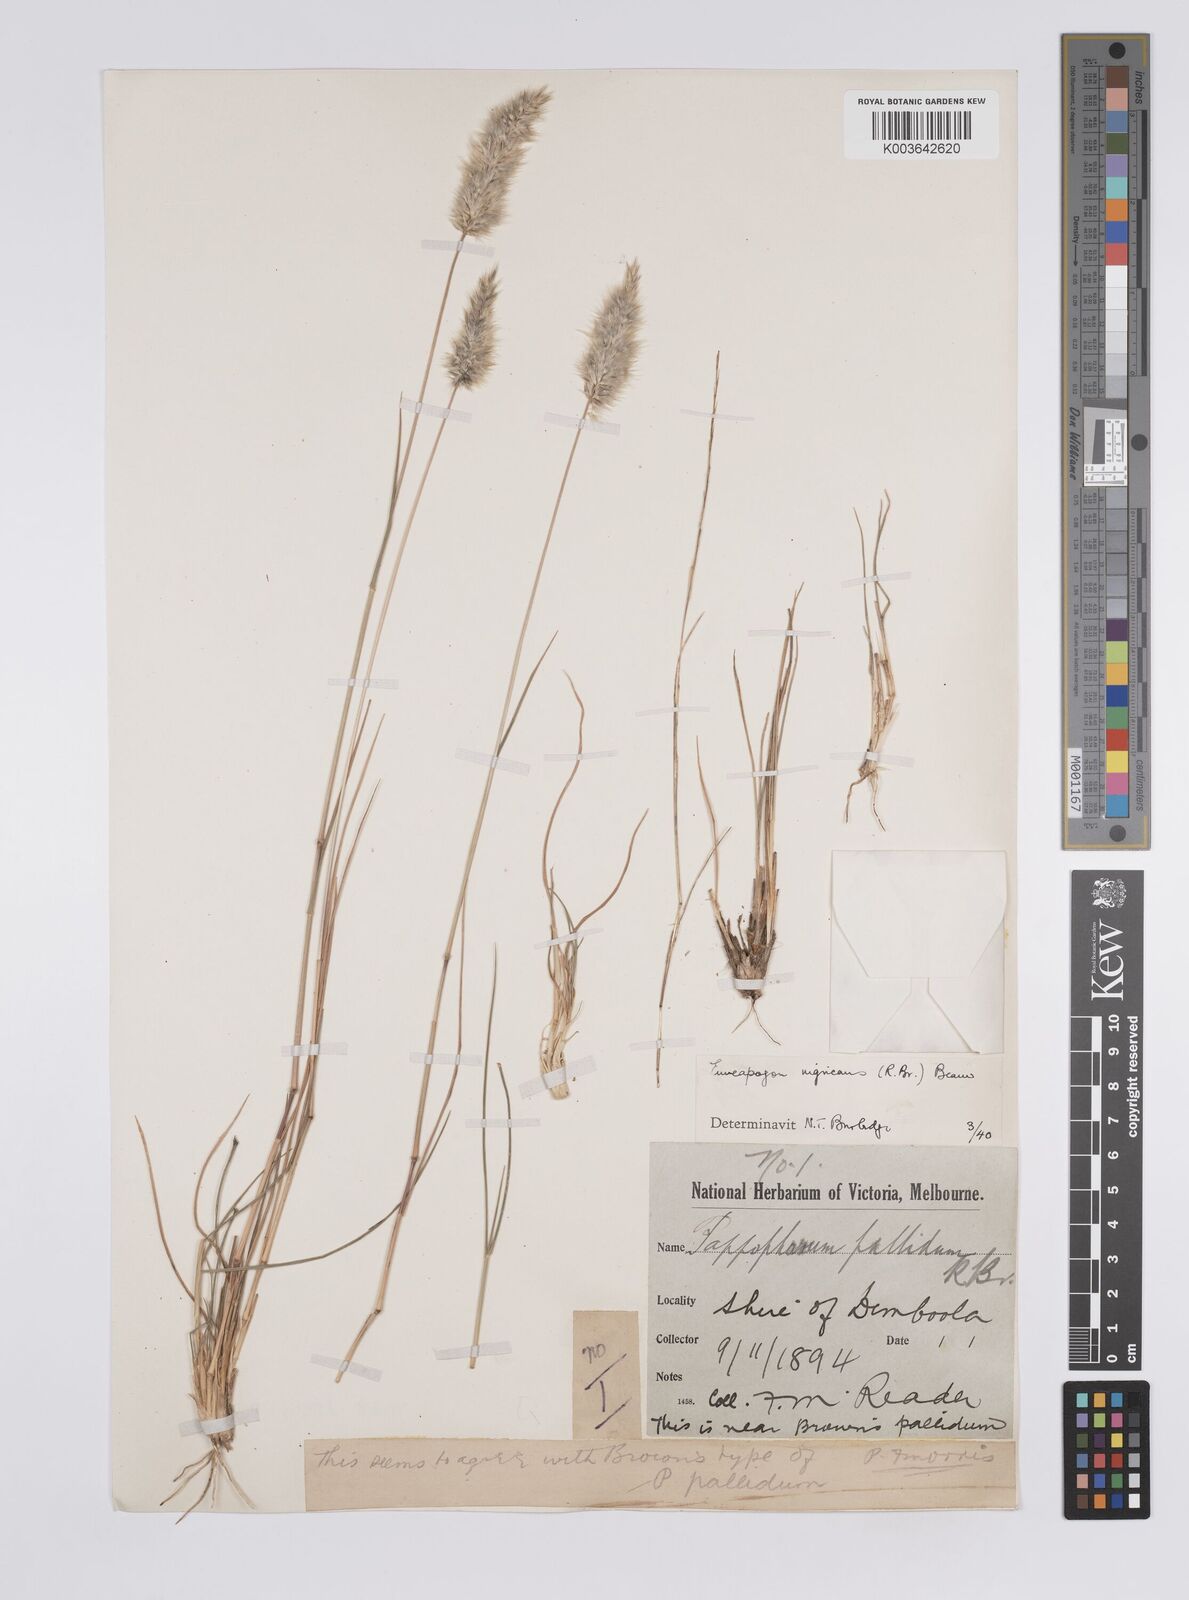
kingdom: Plantae
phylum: Tracheophyta
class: Liliopsida
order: Poales
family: Poaceae
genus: Enneapogon
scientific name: Enneapogon nigricans
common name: Pappus grass
